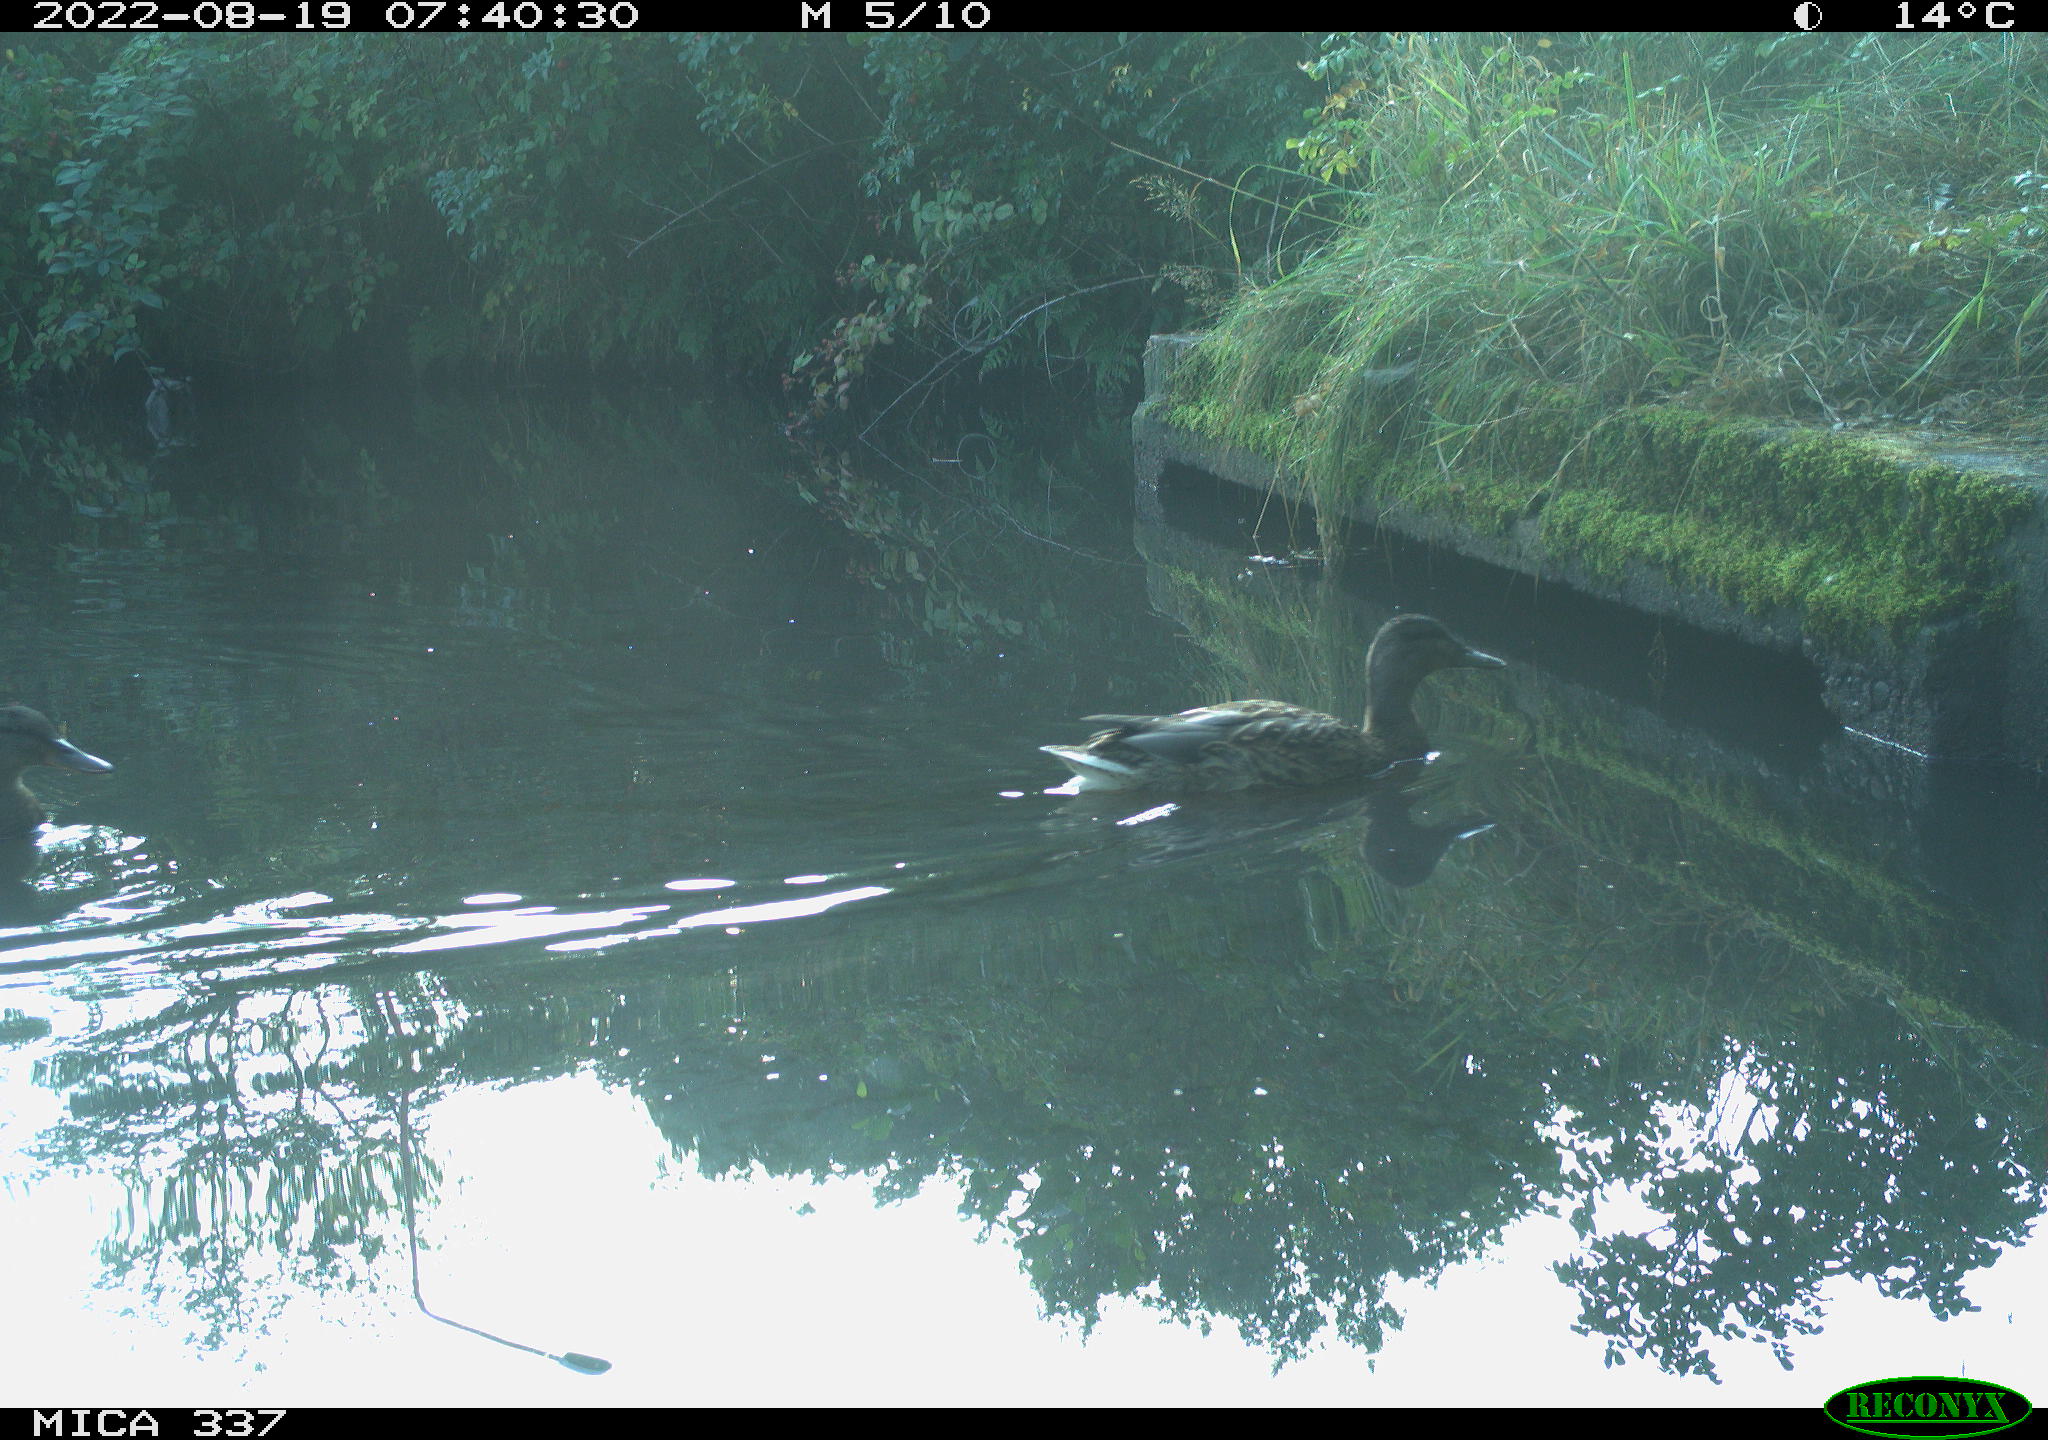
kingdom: Animalia
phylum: Chordata
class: Aves
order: Anseriformes
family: Anatidae
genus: Anas
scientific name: Anas platyrhynchos
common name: Mallard
